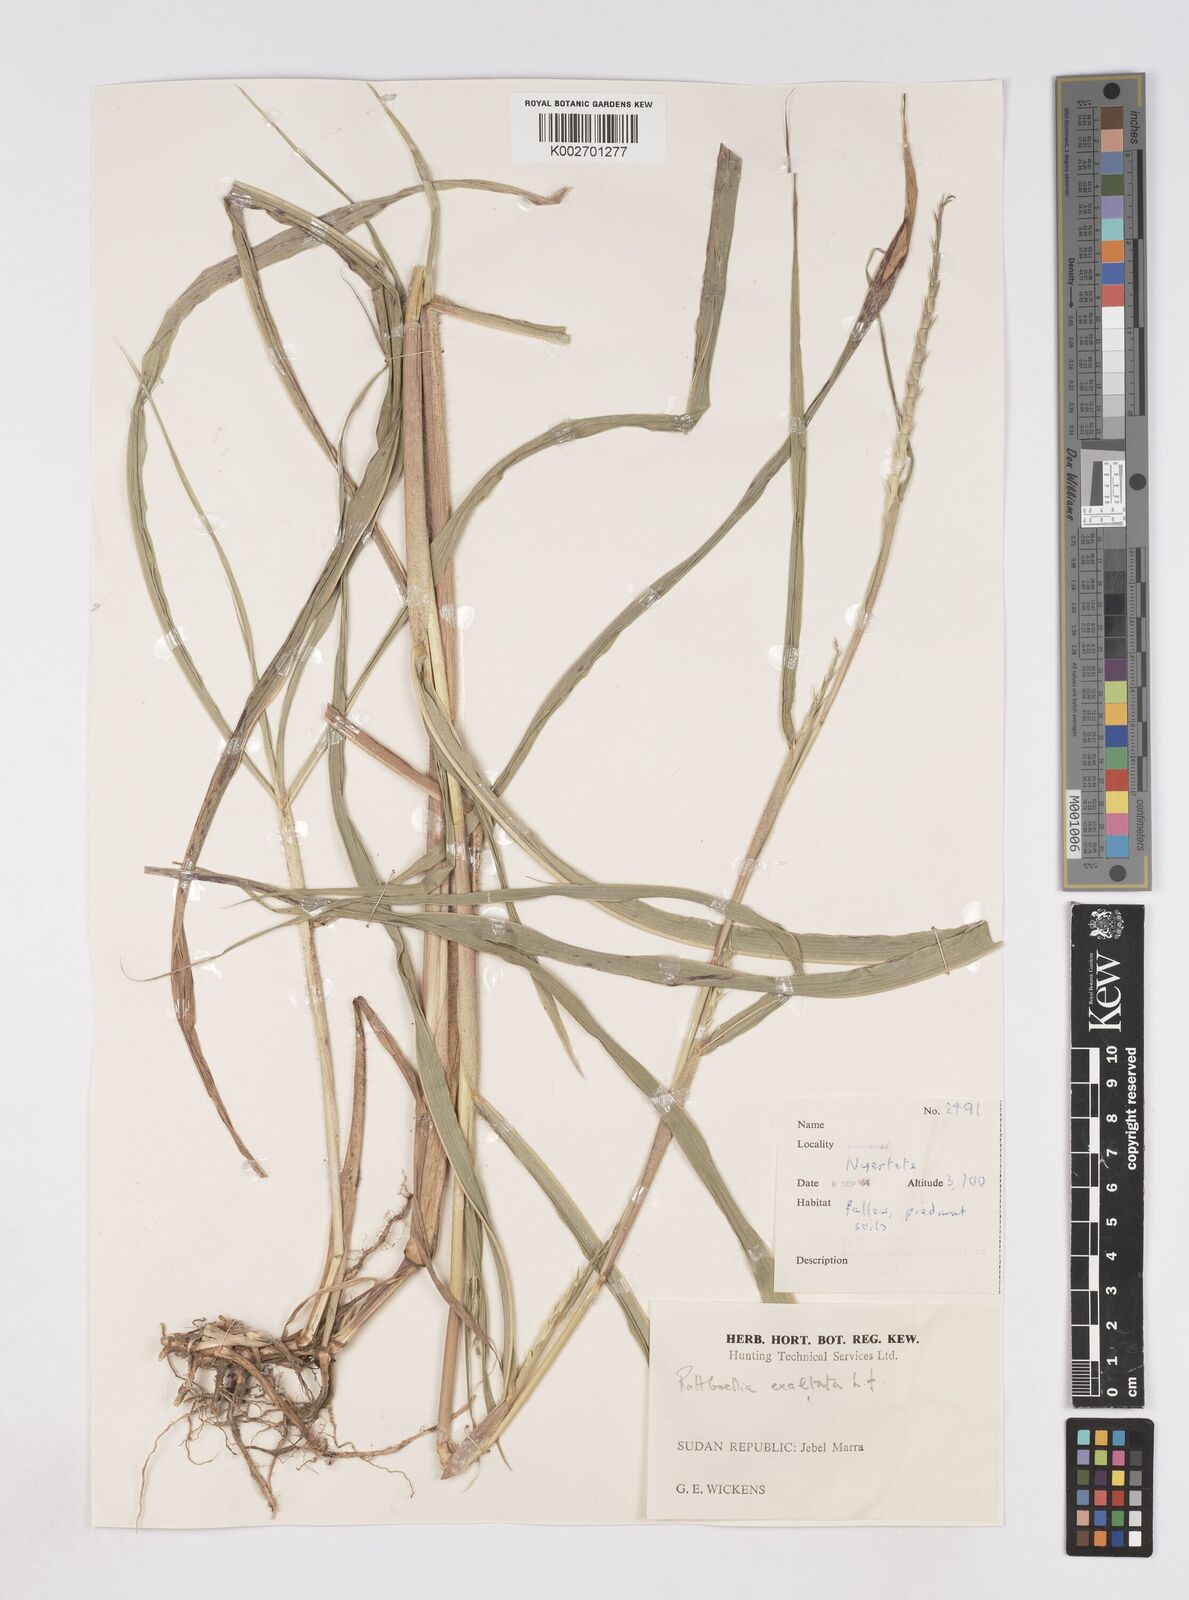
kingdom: Plantae
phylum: Tracheophyta
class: Liliopsida
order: Poales
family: Poaceae
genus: Rottboellia
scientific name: Rottboellia cochinchinensis
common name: Itchgrass
